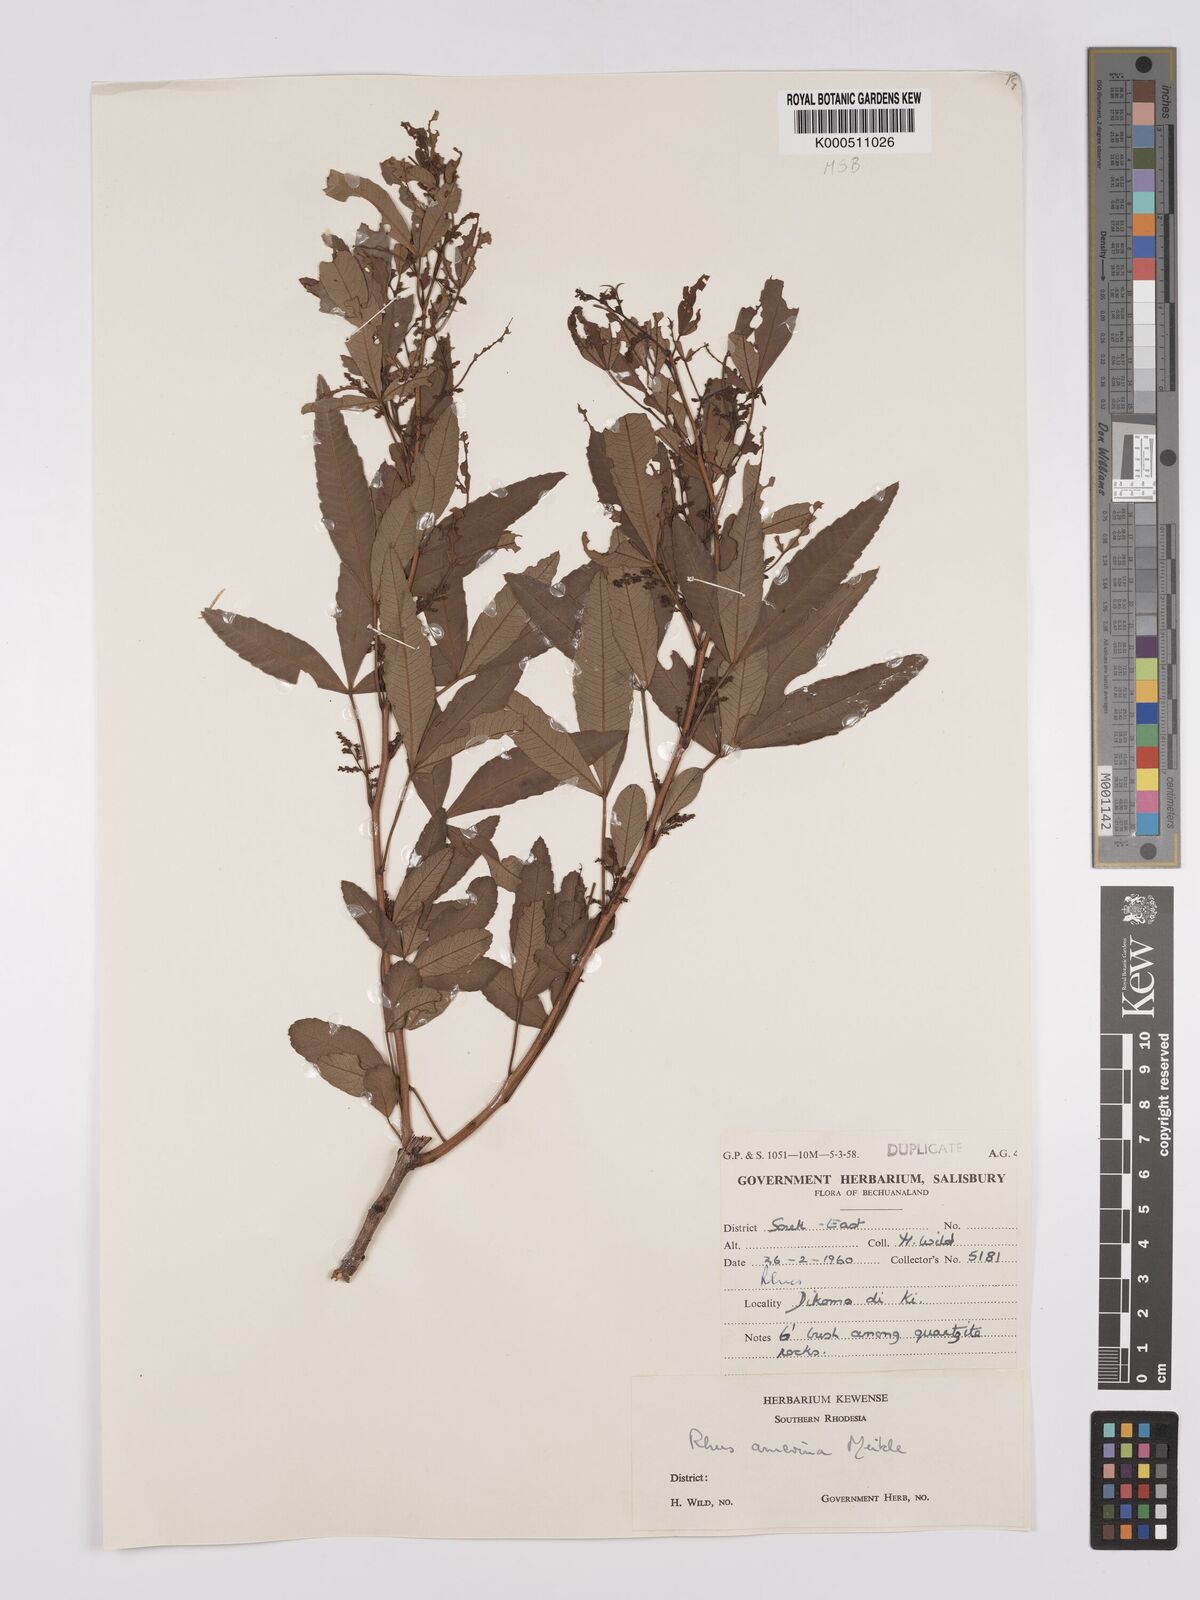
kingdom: Plantae
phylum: Tracheophyta
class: Magnoliopsida
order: Sapindales
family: Anacardiaceae
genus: Searsia
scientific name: Searsia leptodictya
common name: Mountain karee
